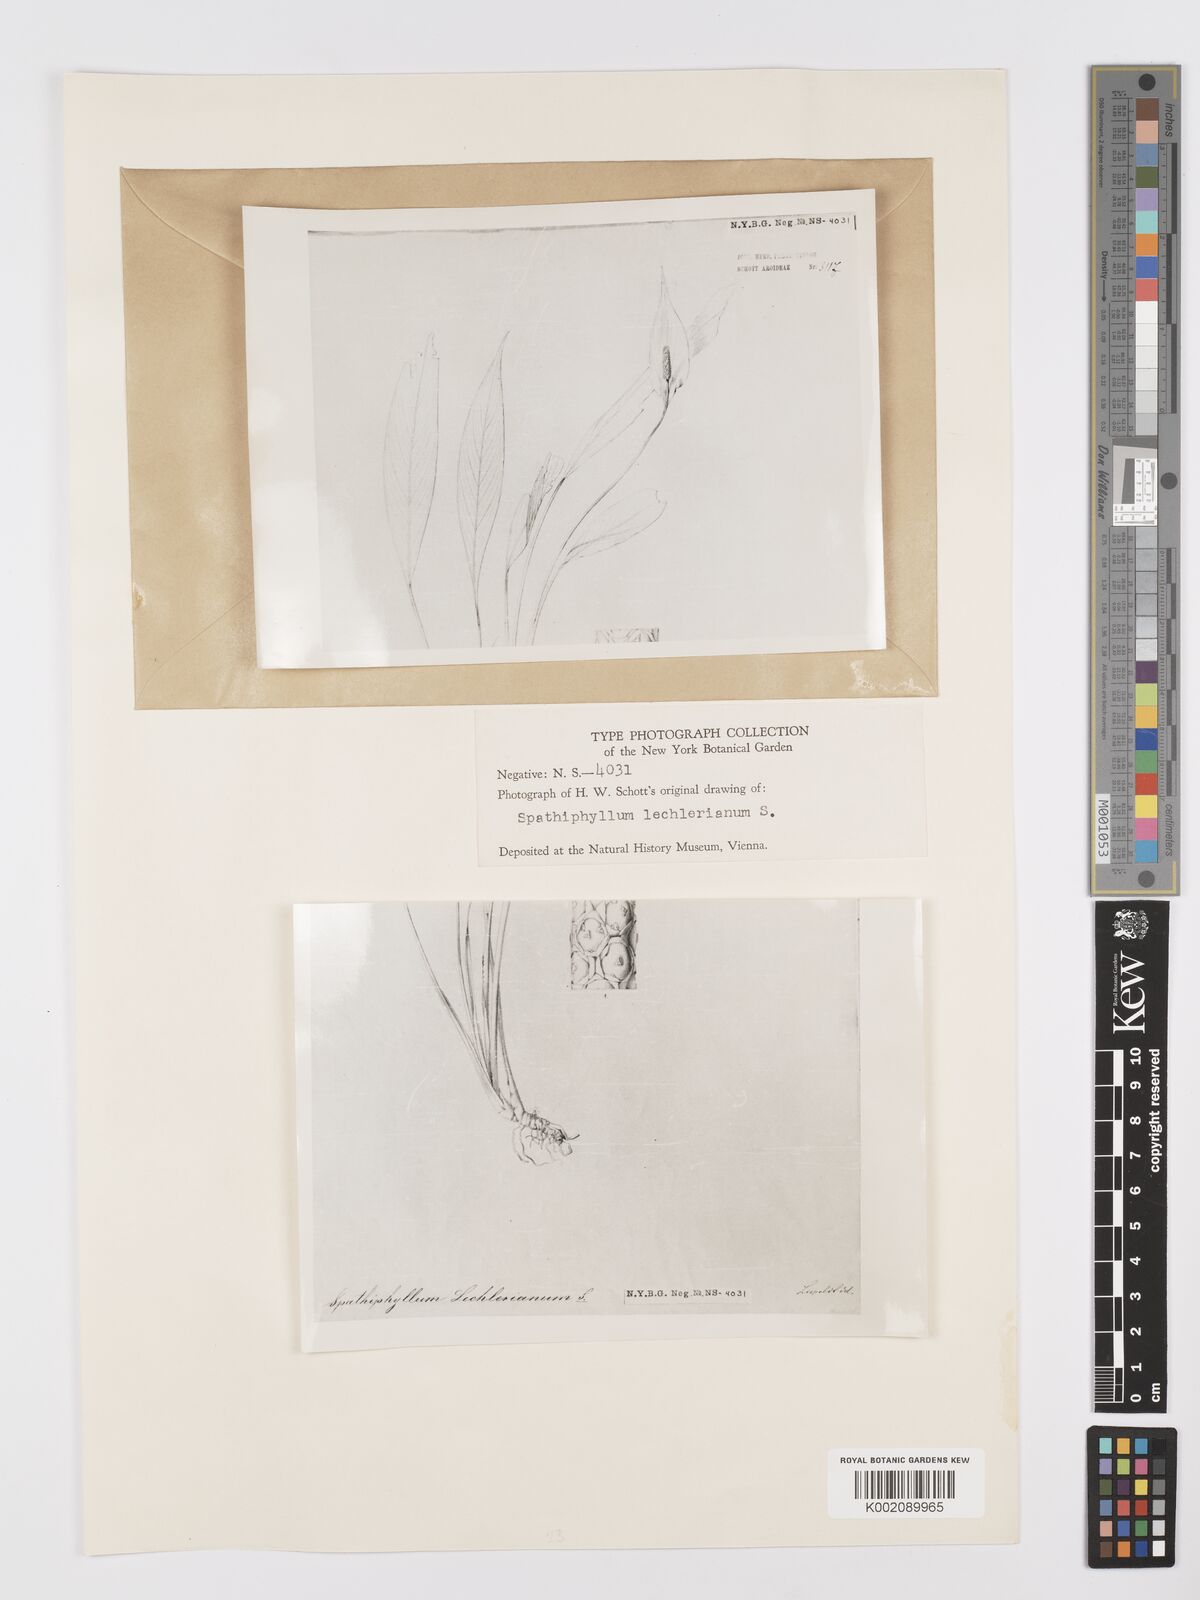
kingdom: Plantae
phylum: Tracheophyta
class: Liliopsida
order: Alismatales
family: Araceae
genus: Spathiphyllum
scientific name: Spathiphyllum lechlerianum
